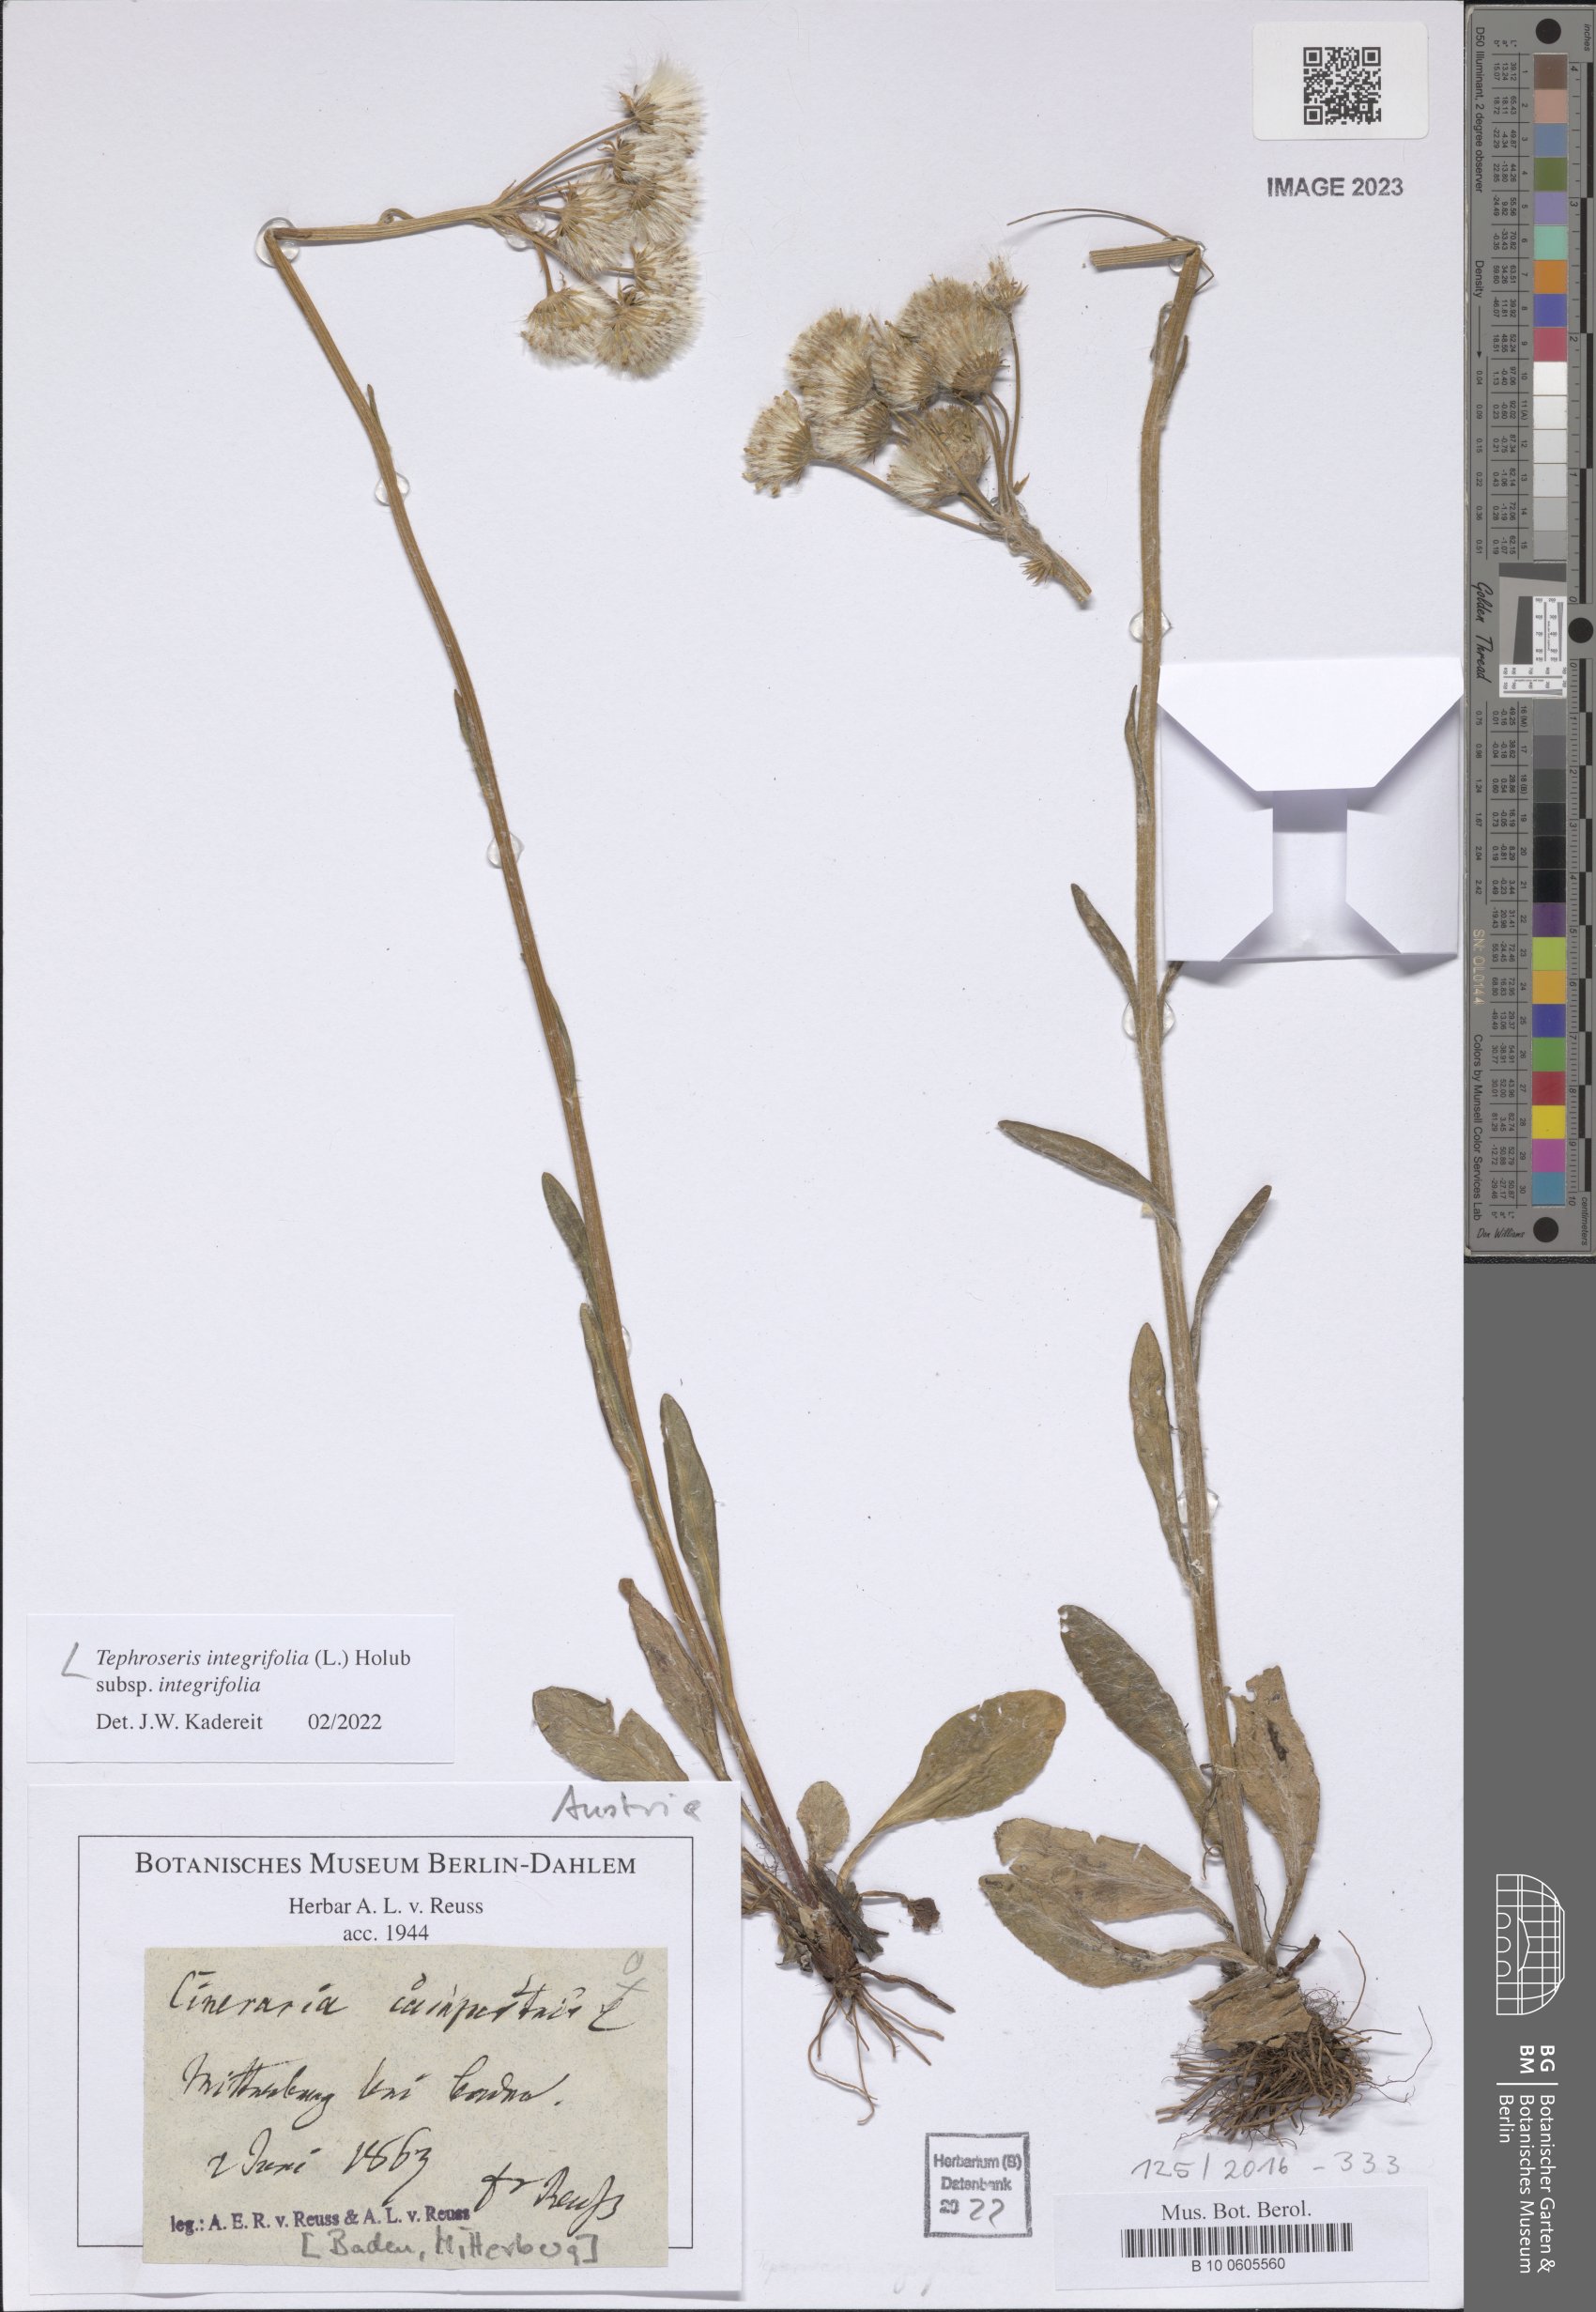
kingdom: Plantae
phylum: Tracheophyta
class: Magnoliopsida
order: Asterales
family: Asteraceae
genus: Tephroseris
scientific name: Tephroseris integrifolia
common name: Field fleawort
